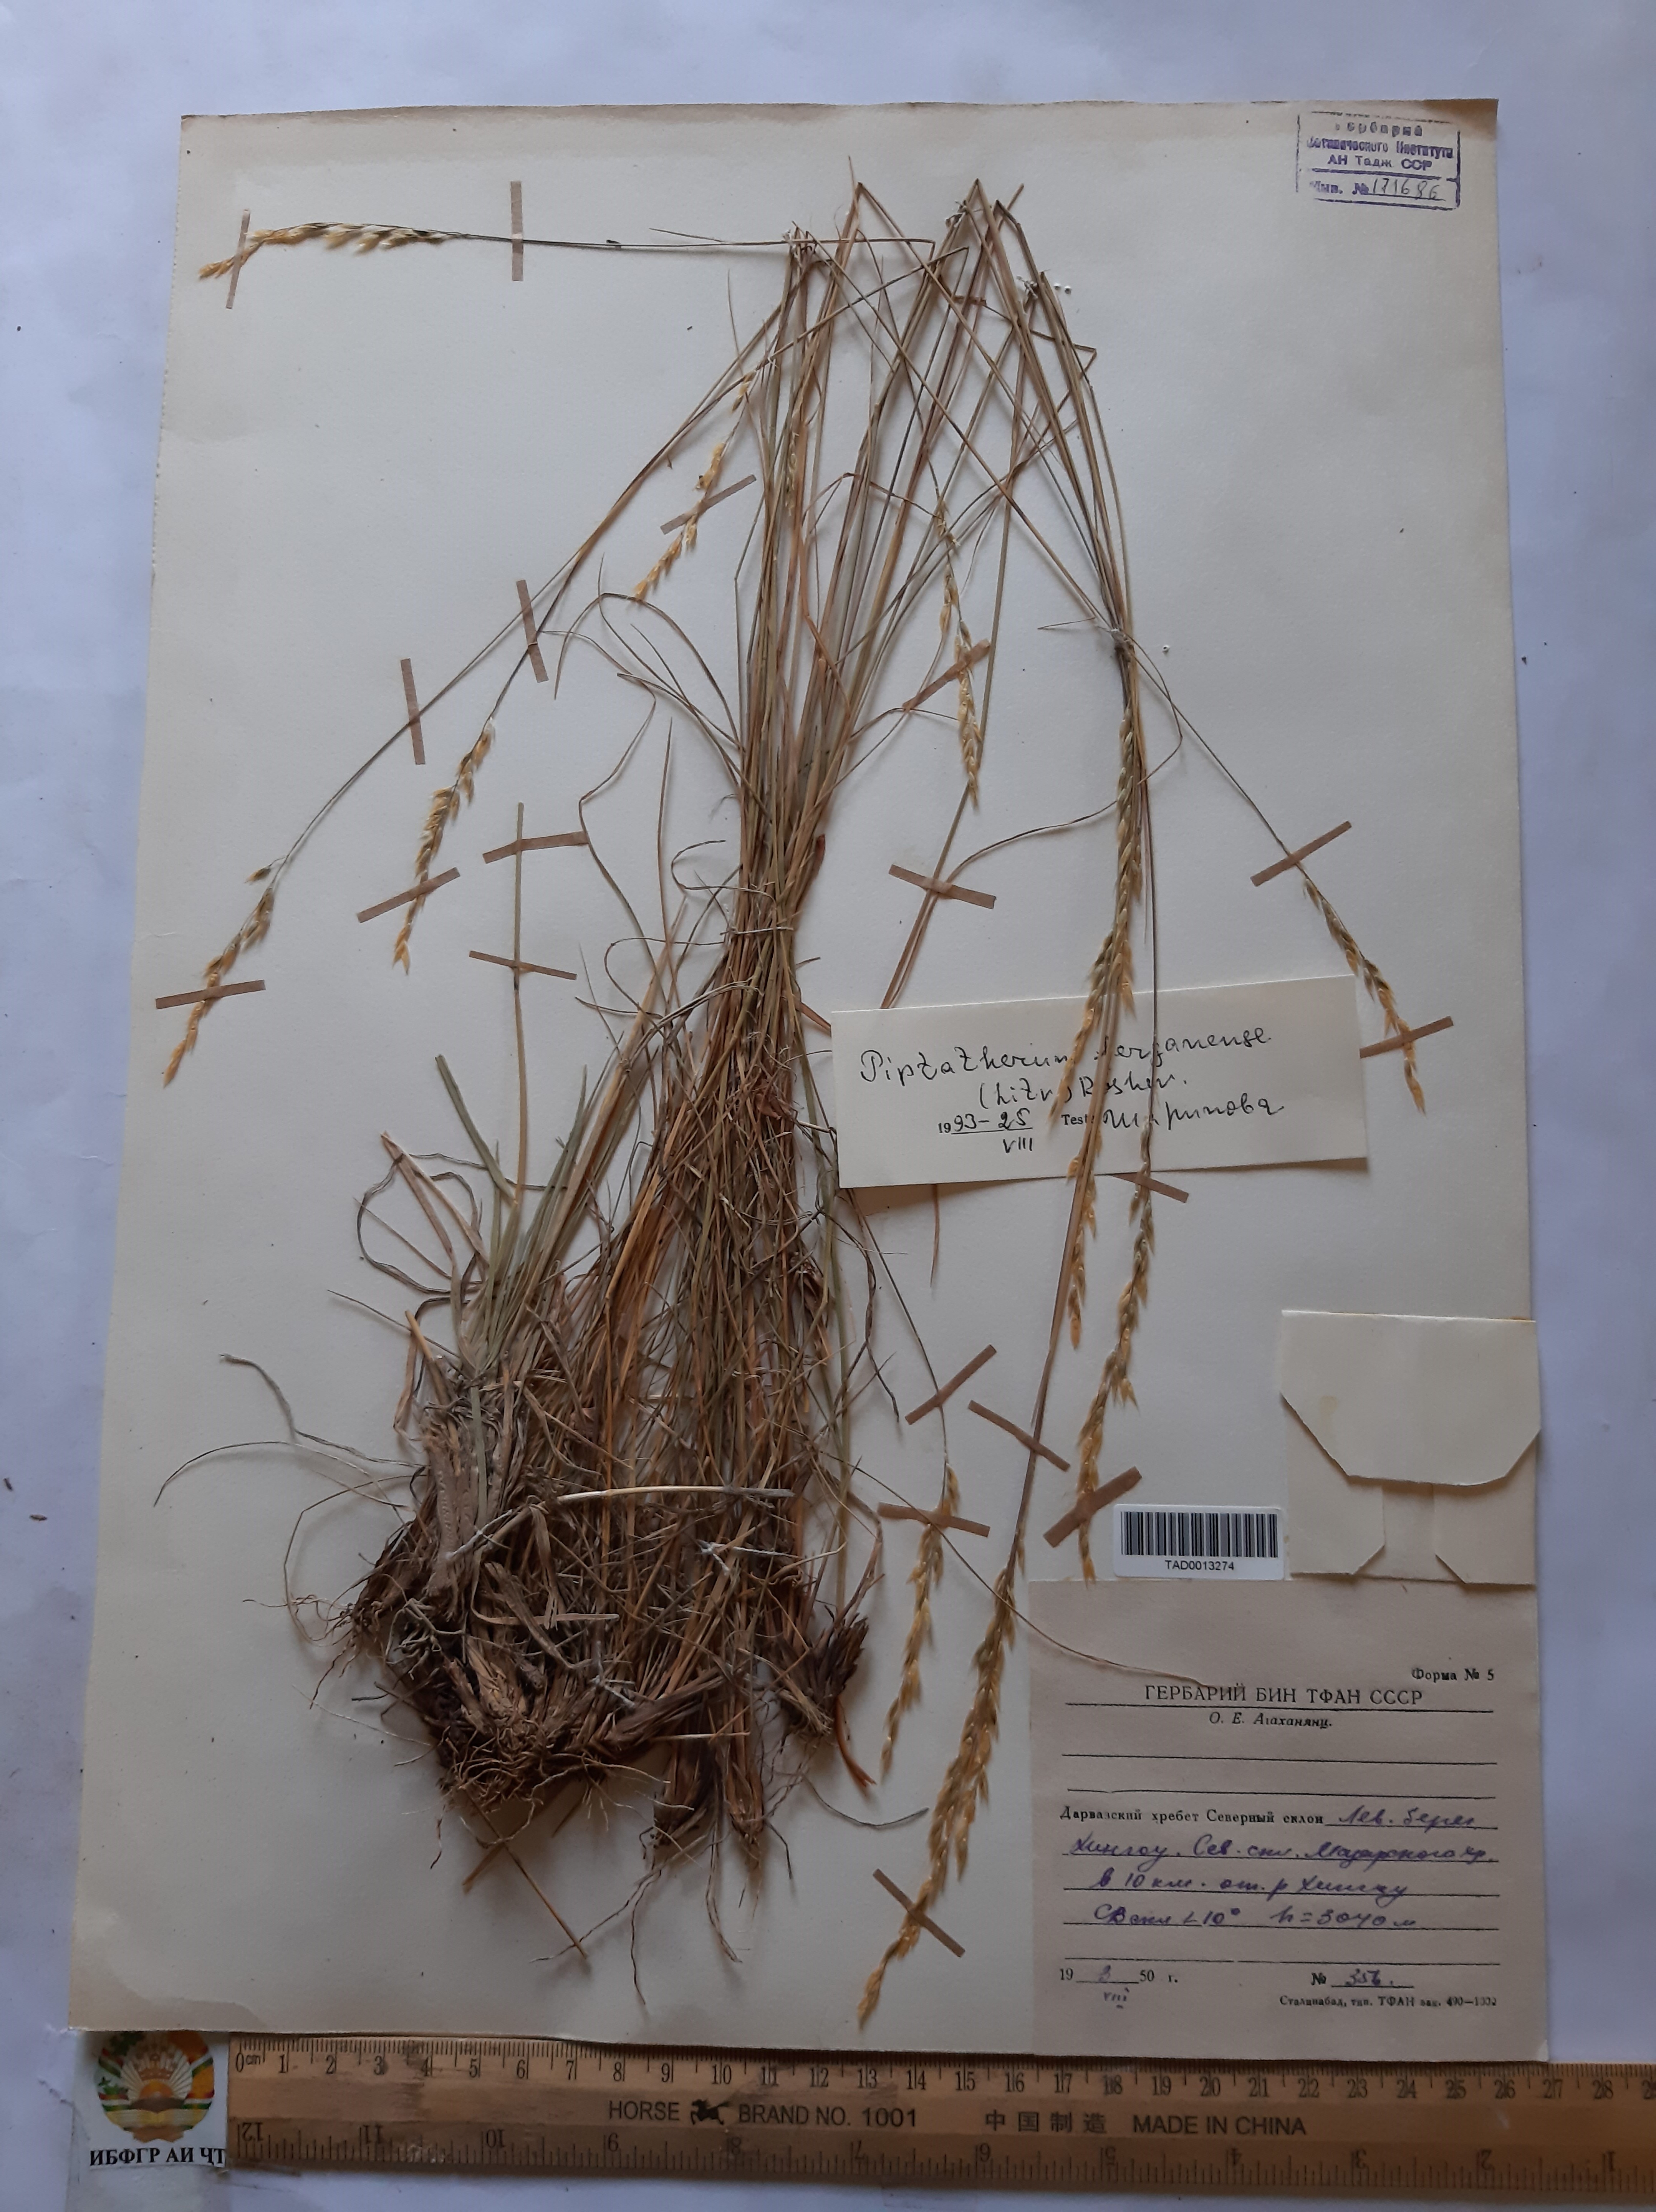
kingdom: Plantae
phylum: Tracheophyta
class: Liliopsida
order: Poales
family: Poaceae
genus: Piptatherum
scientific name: Piptatherum ferganense
